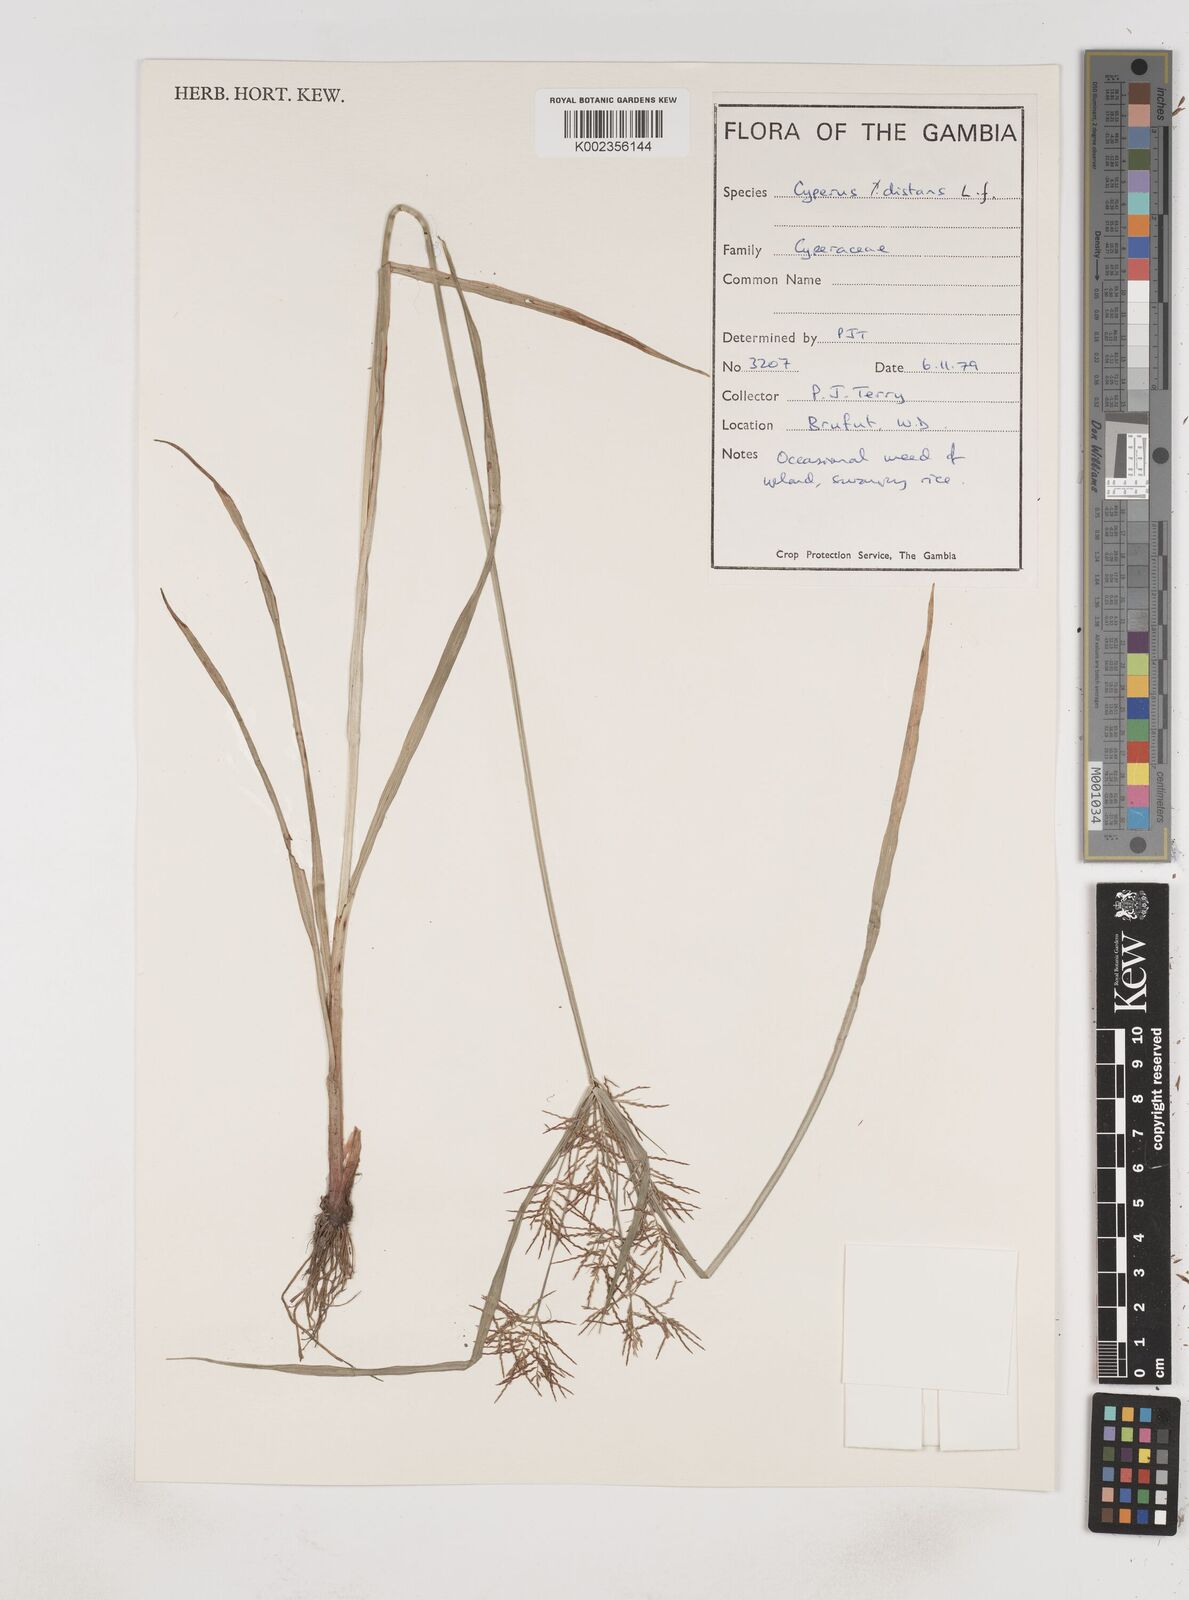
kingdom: Plantae
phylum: Tracheophyta
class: Liliopsida
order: Poales
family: Cyperaceae
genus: Cyperus
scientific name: Cyperus distans
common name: Slender cyperus
